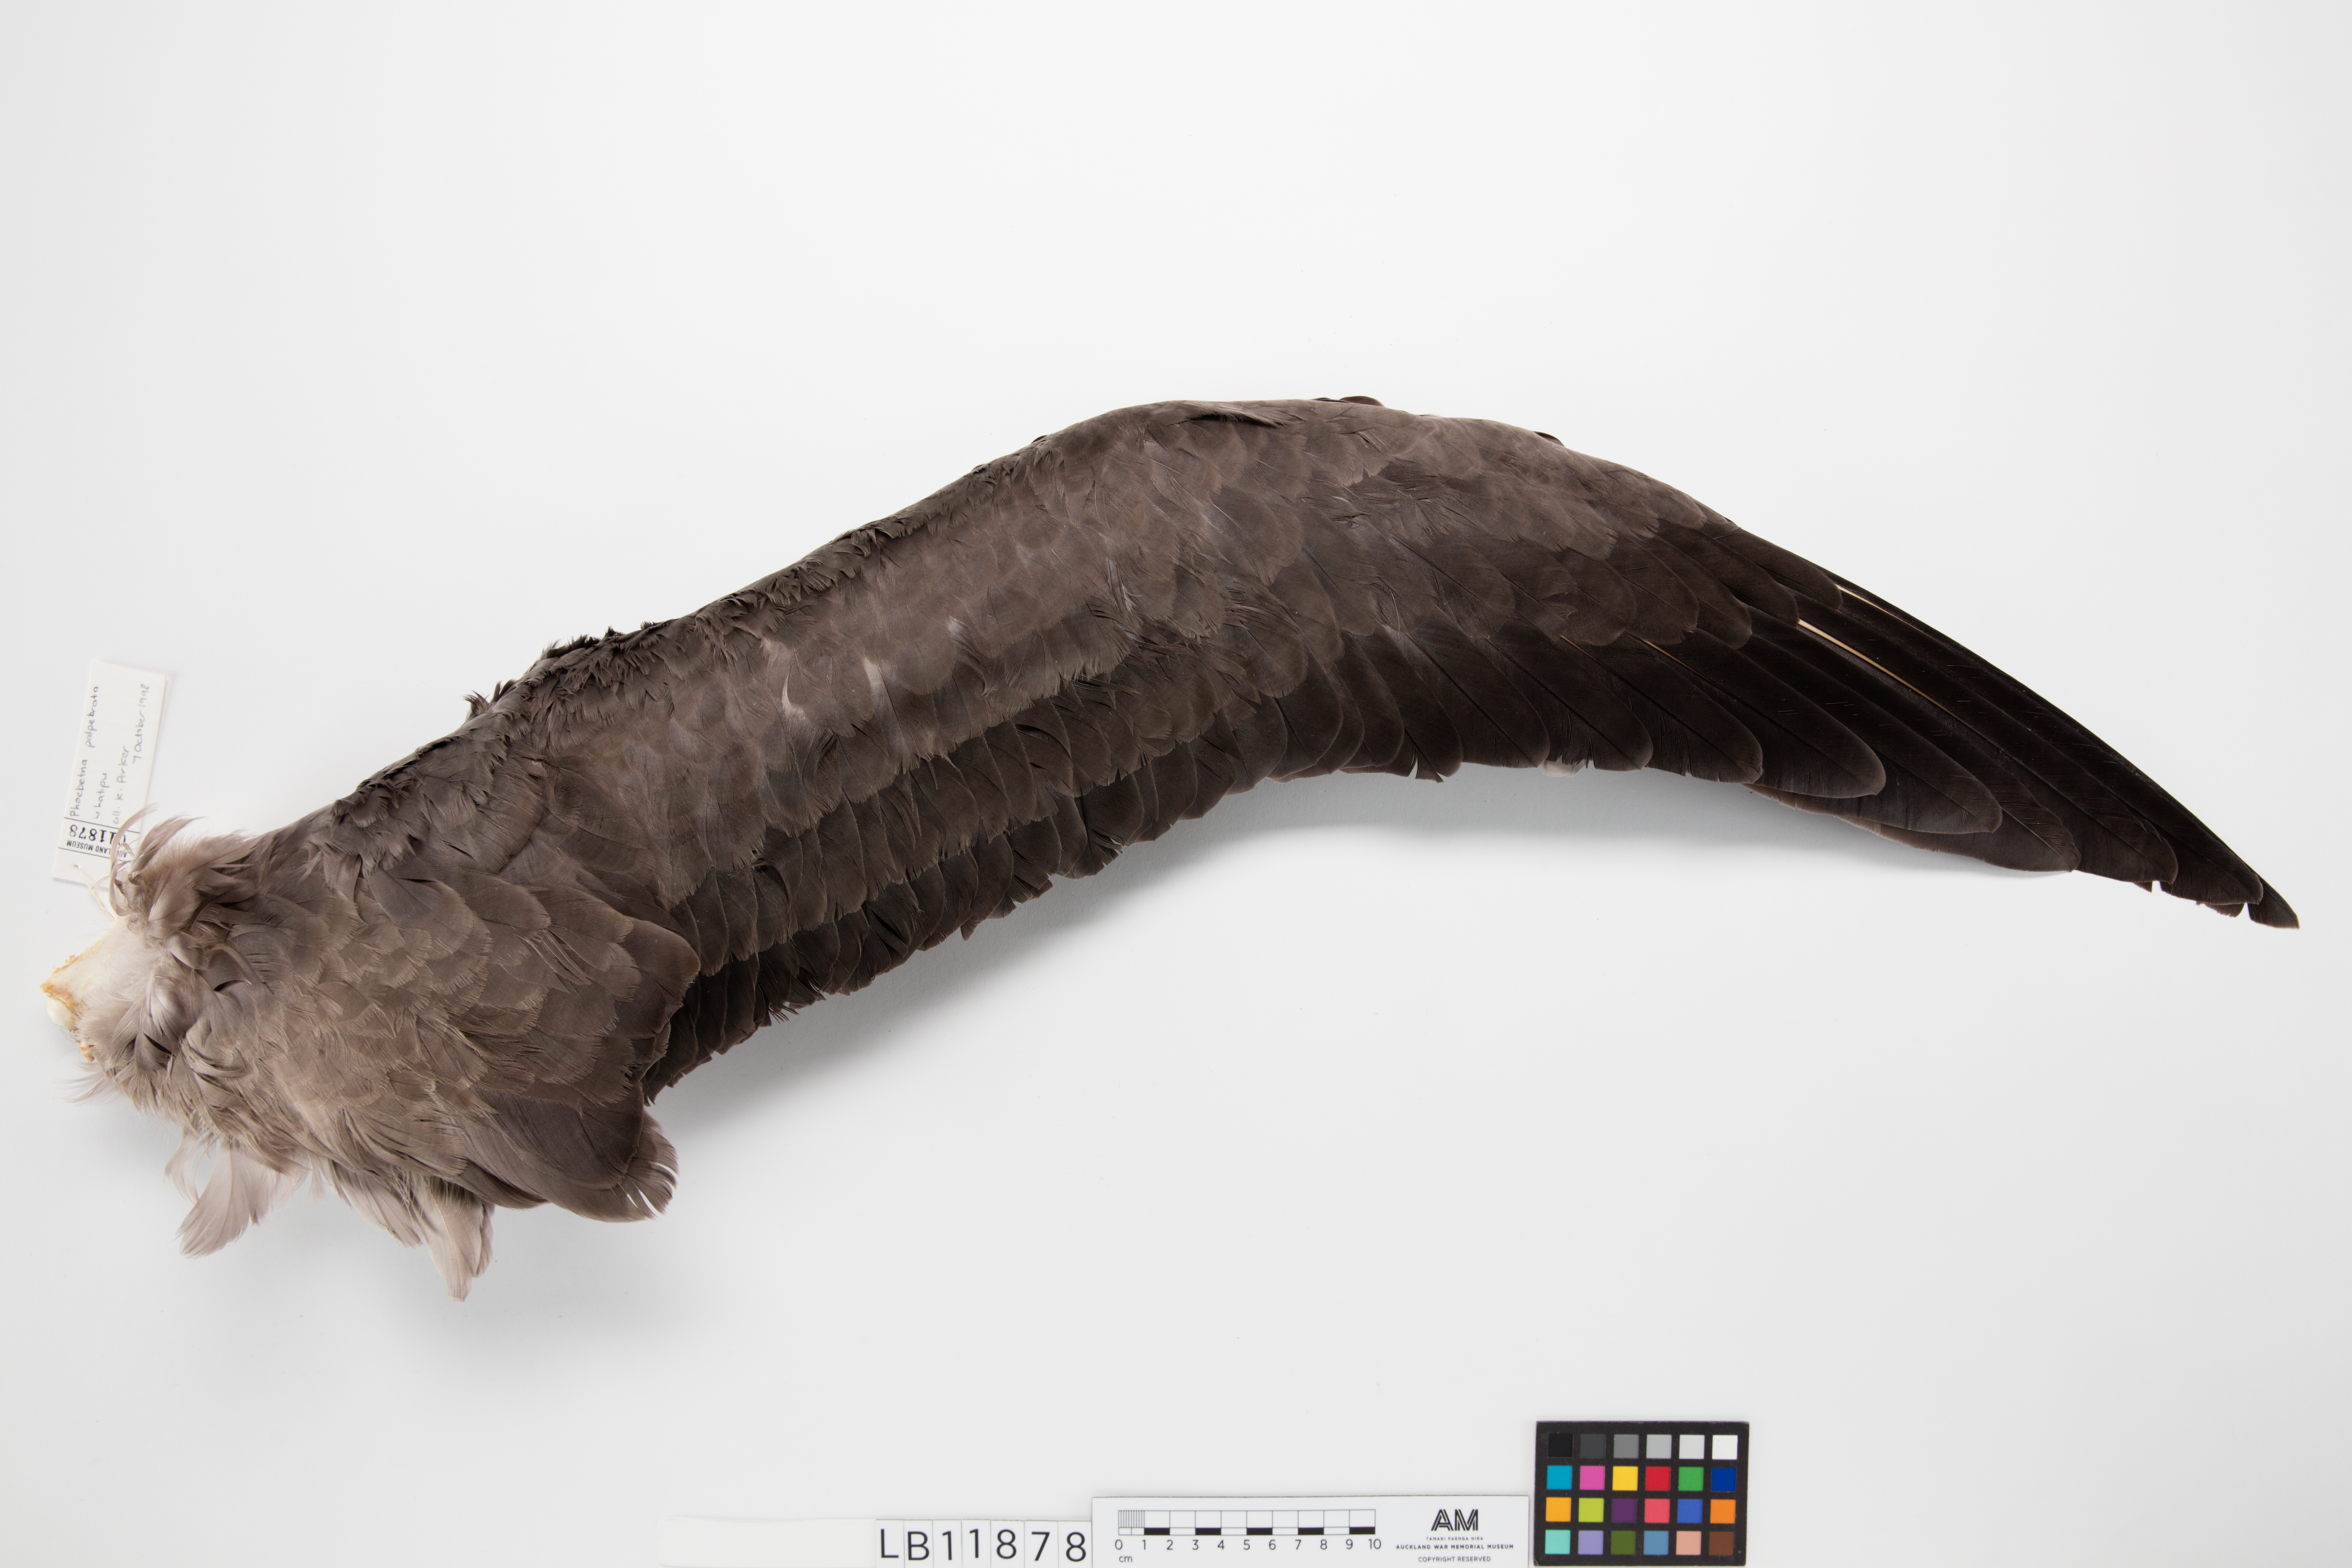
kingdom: Animalia
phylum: Chordata
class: Aves
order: Procellariiformes
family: Diomedeidae
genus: Phoebetria
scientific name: Phoebetria palpebrata
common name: Light-mantled albatross
